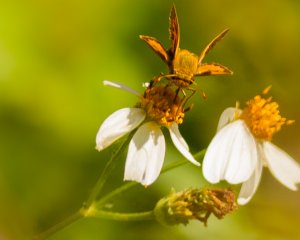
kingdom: Animalia
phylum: Arthropoda
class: Insecta
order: Lepidoptera
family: Hesperiidae
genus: Polites
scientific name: Polites vibex
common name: Whirlabout
